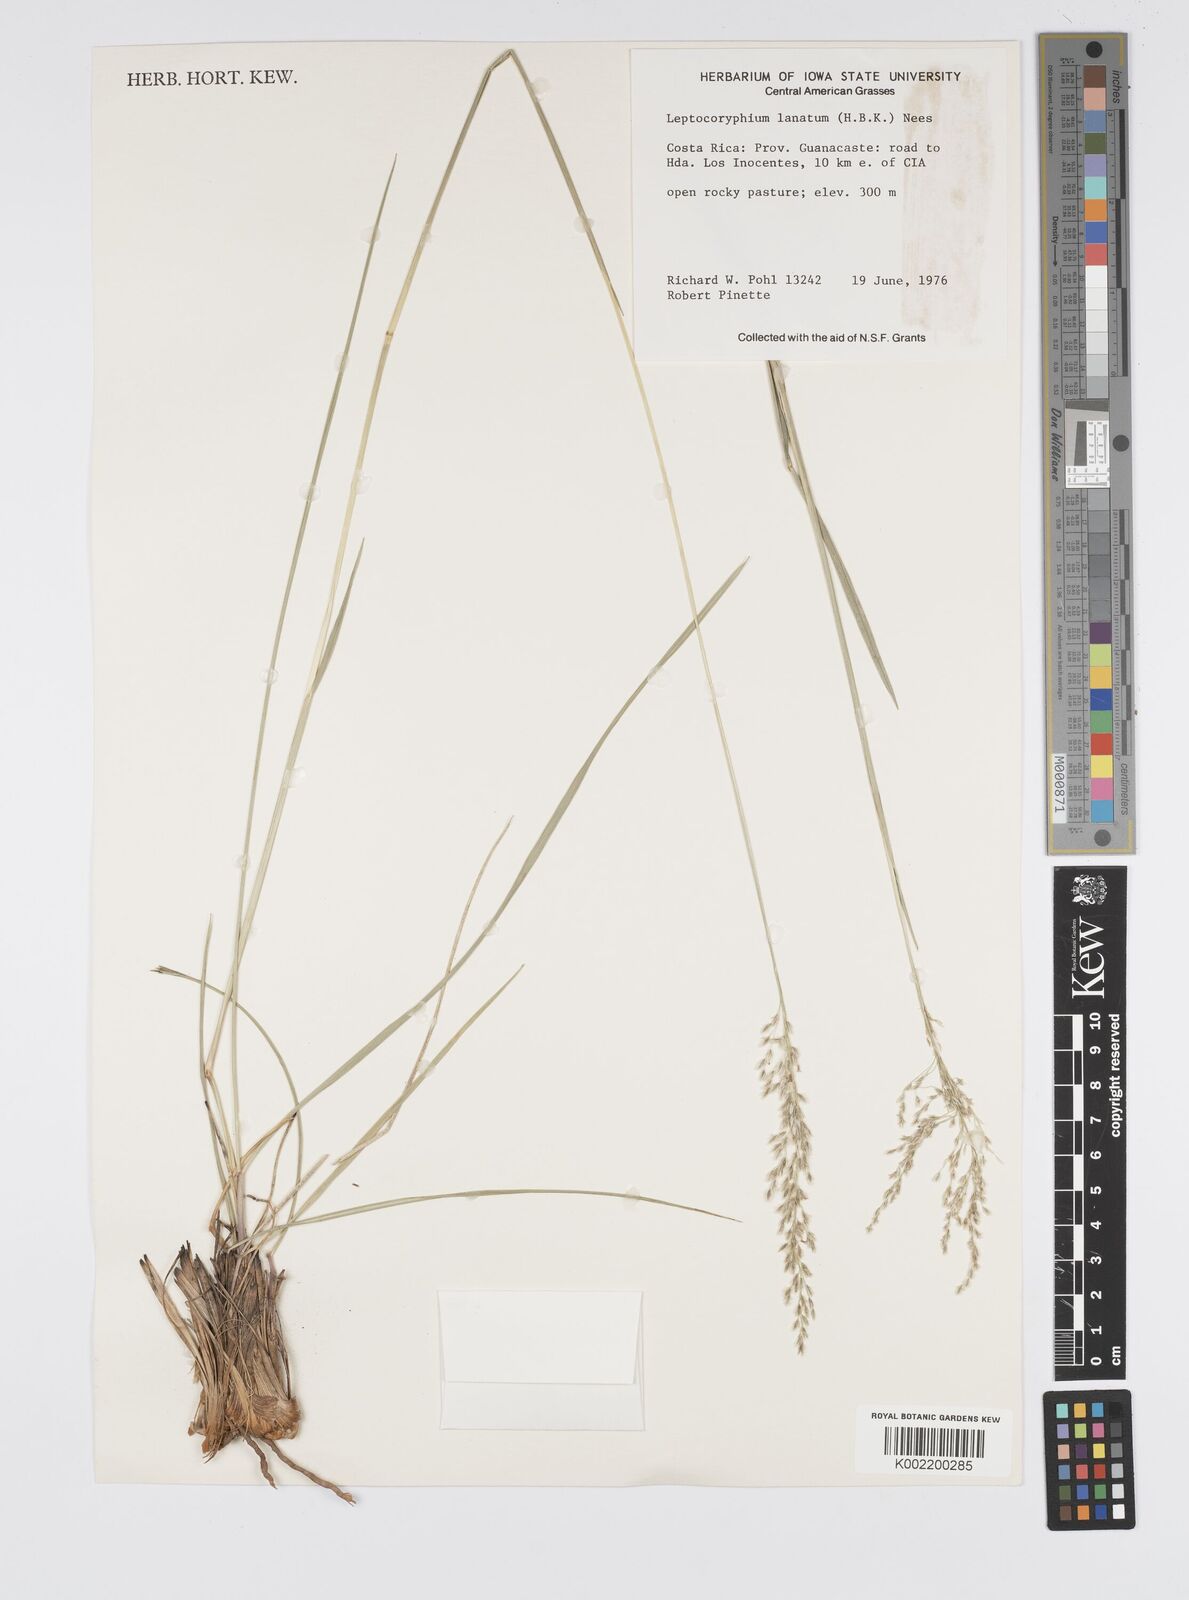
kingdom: Plantae
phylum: Tracheophyta
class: Liliopsida
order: Poales
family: Poaceae
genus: Anthenantia
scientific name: Anthenantia lanata
